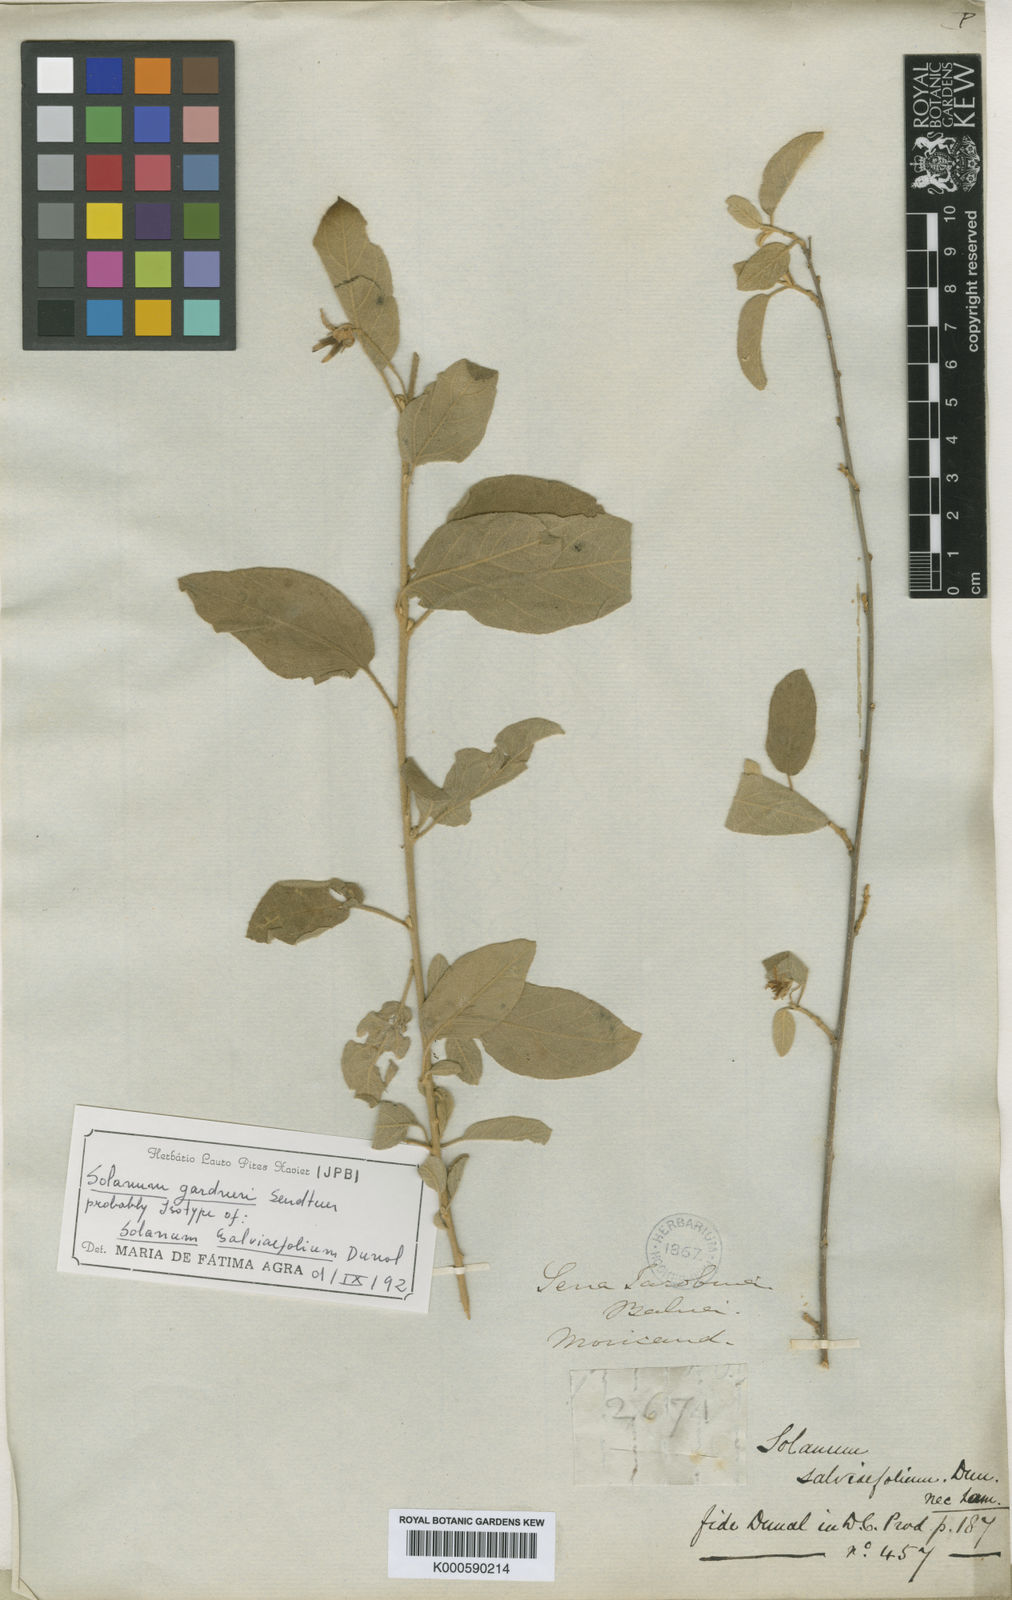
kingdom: Plantae
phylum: Tracheophyta
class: Magnoliopsida
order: Solanales
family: Solanaceae
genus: Solanum
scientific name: Solanum
